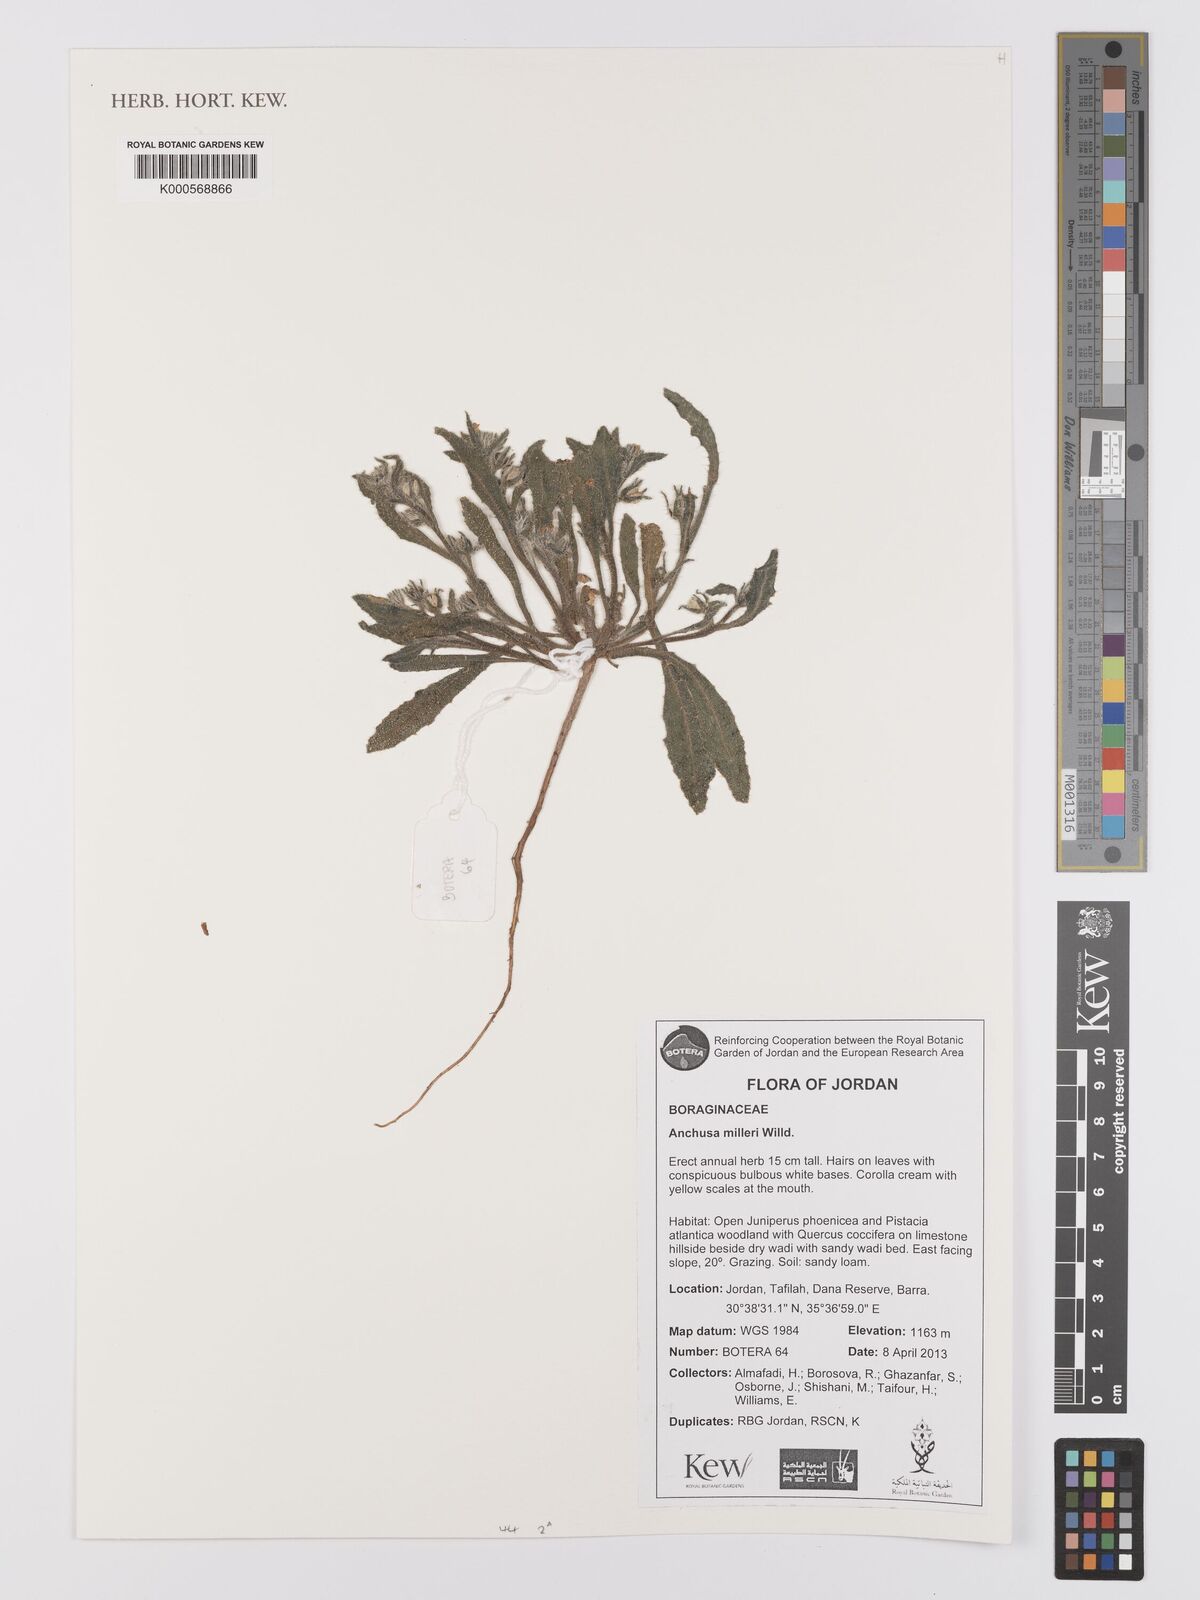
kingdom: Plantae
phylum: Tracheophyta
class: Magnoliopsida
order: Boraginales
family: Boraginaceae
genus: Anchusa
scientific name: Anchusa milleri
